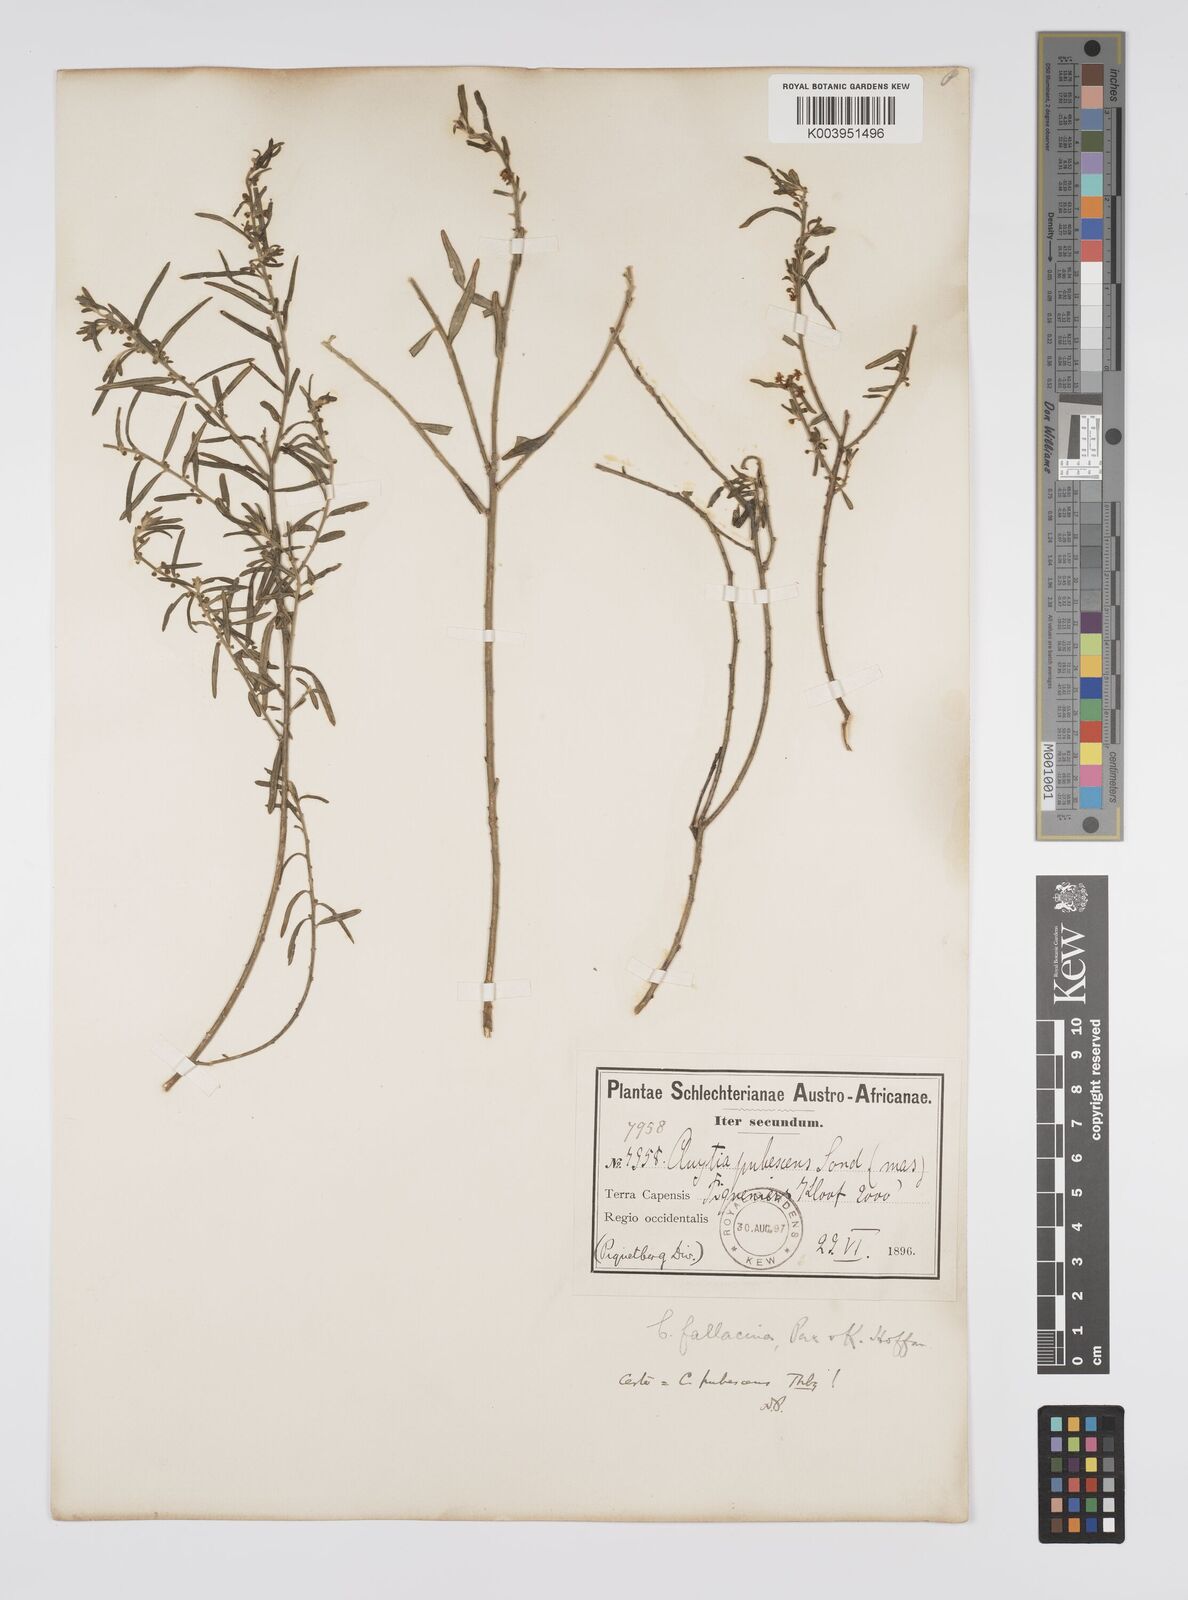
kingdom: Plantae
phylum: Tracheophyta
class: Magnoliopsida
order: Malpighiales
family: Peraceae
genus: Clutia
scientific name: Clutia
